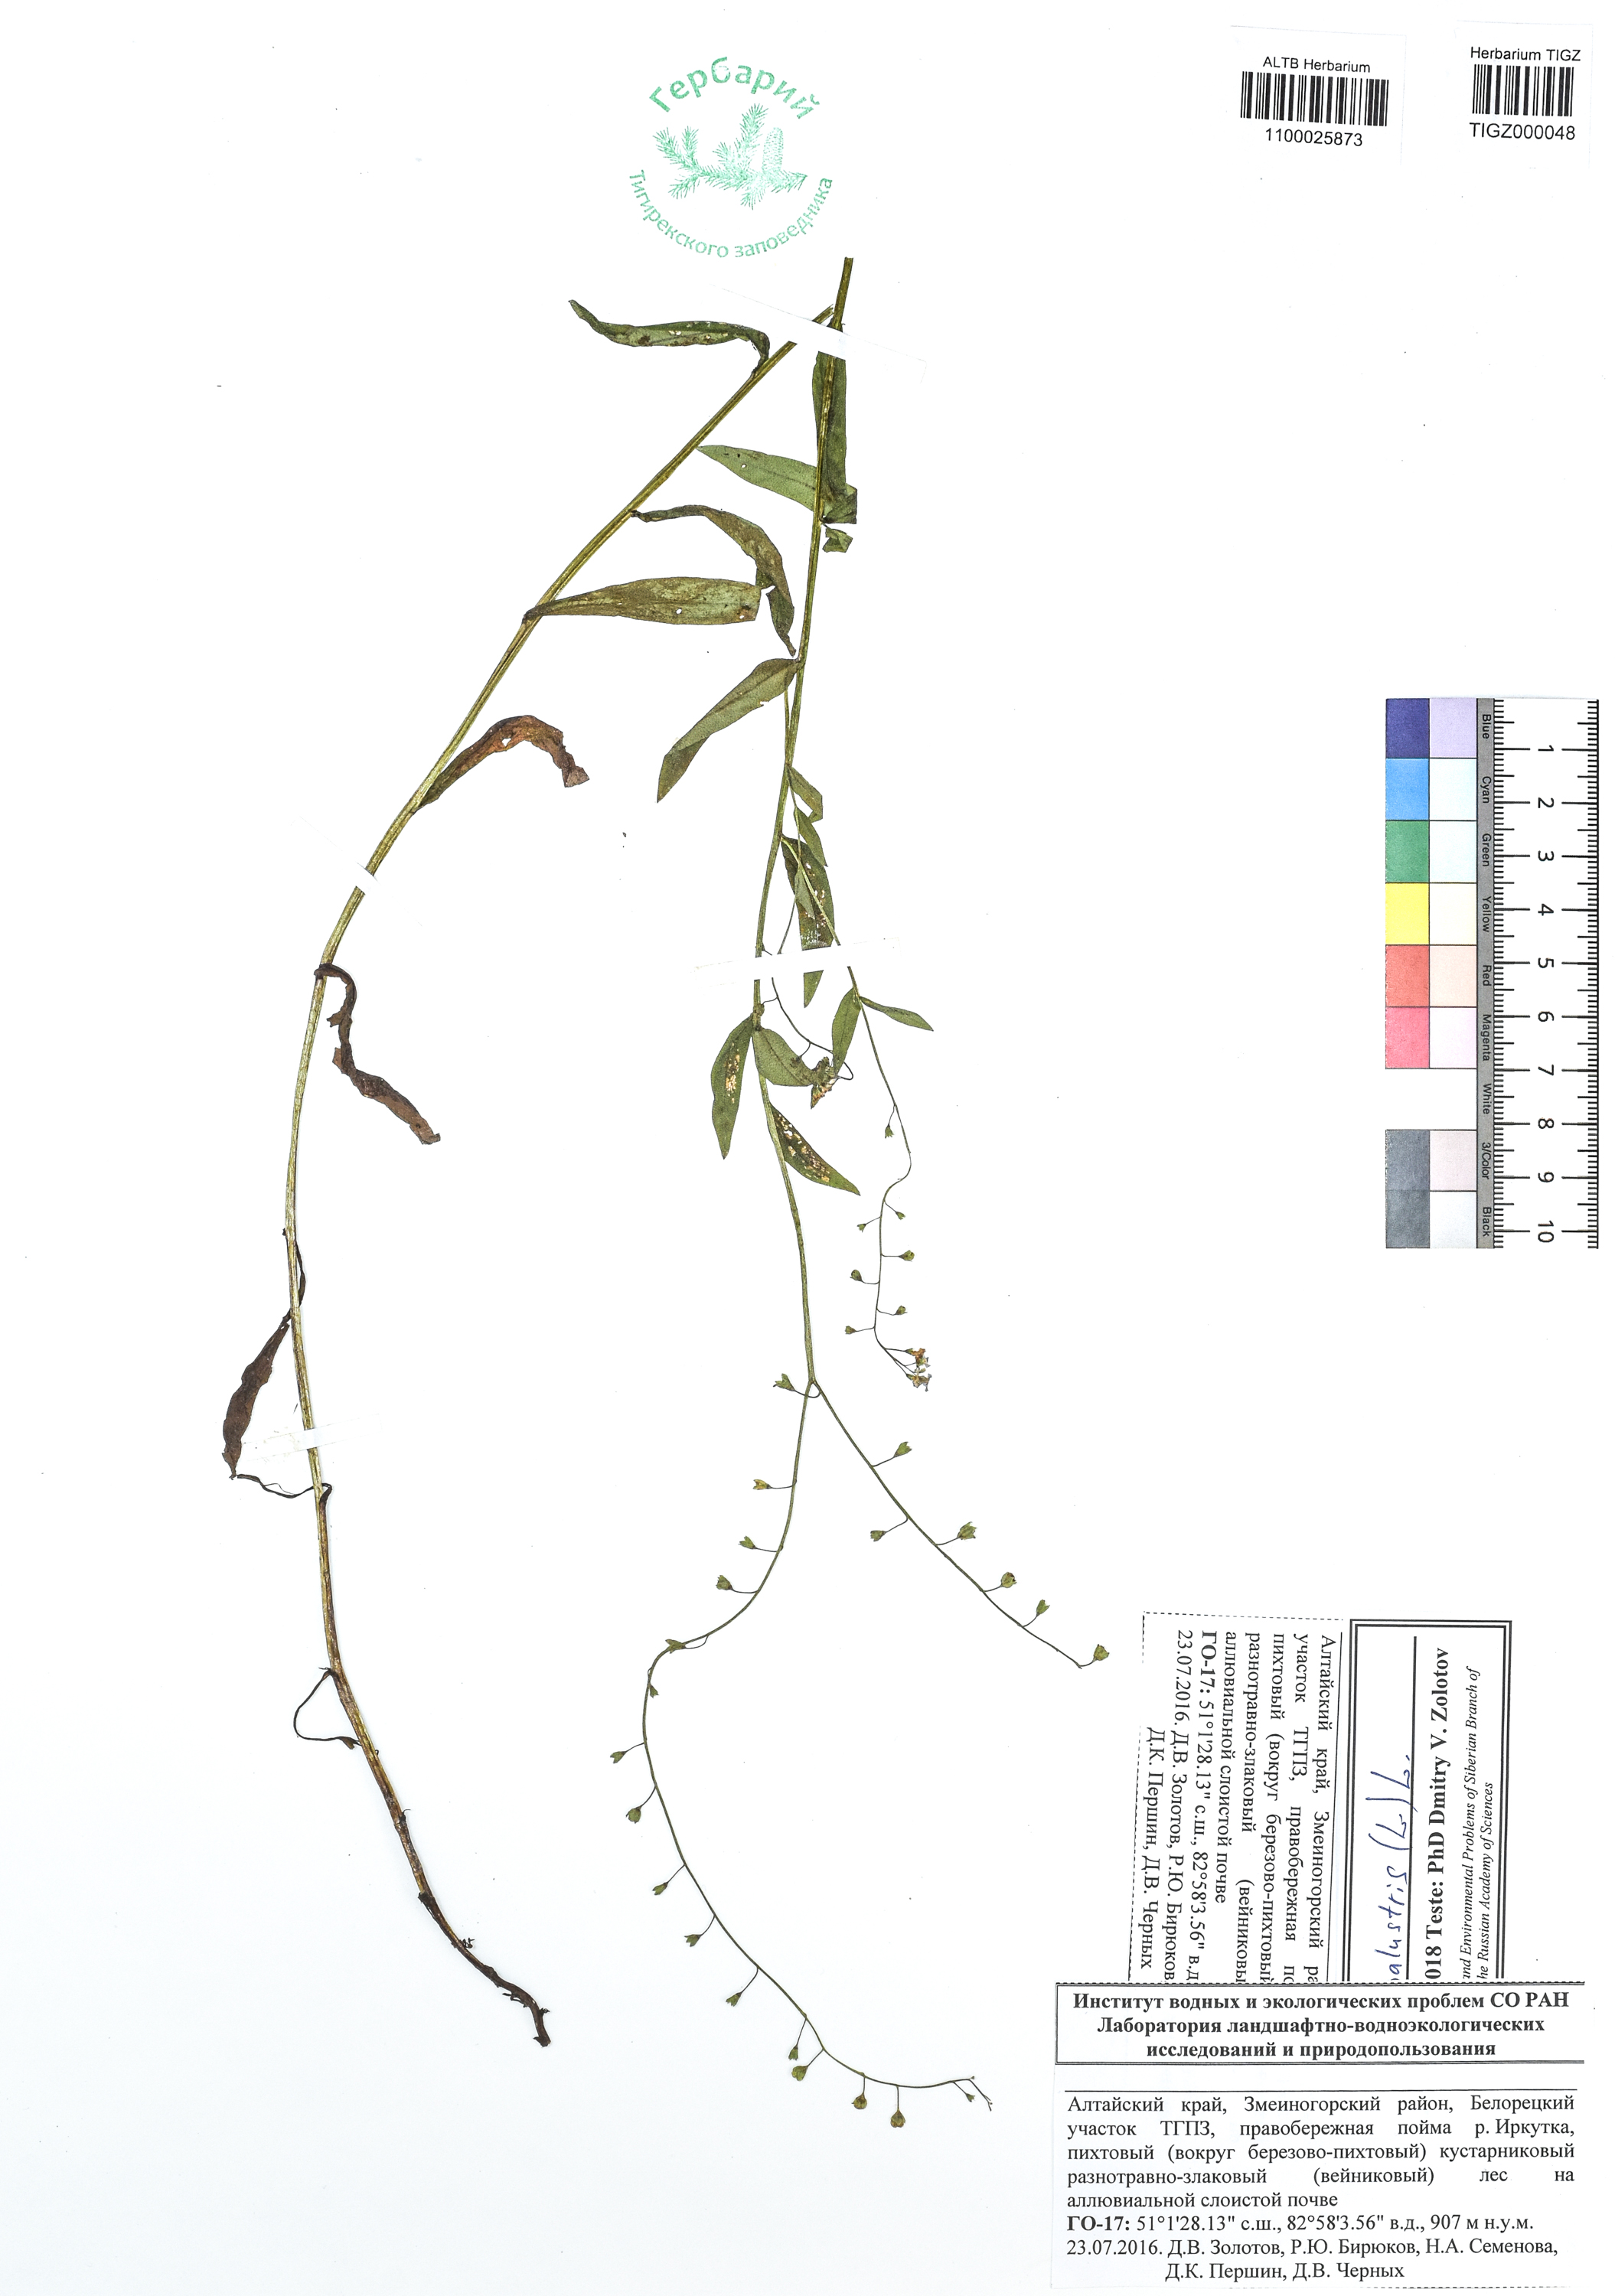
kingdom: Plantae
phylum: Tracheophyta
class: Magnoliopsida
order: Boraginales
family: Boraginaceae
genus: Myosotis
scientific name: Myosotis scorpioides
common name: Water forget-me-not
